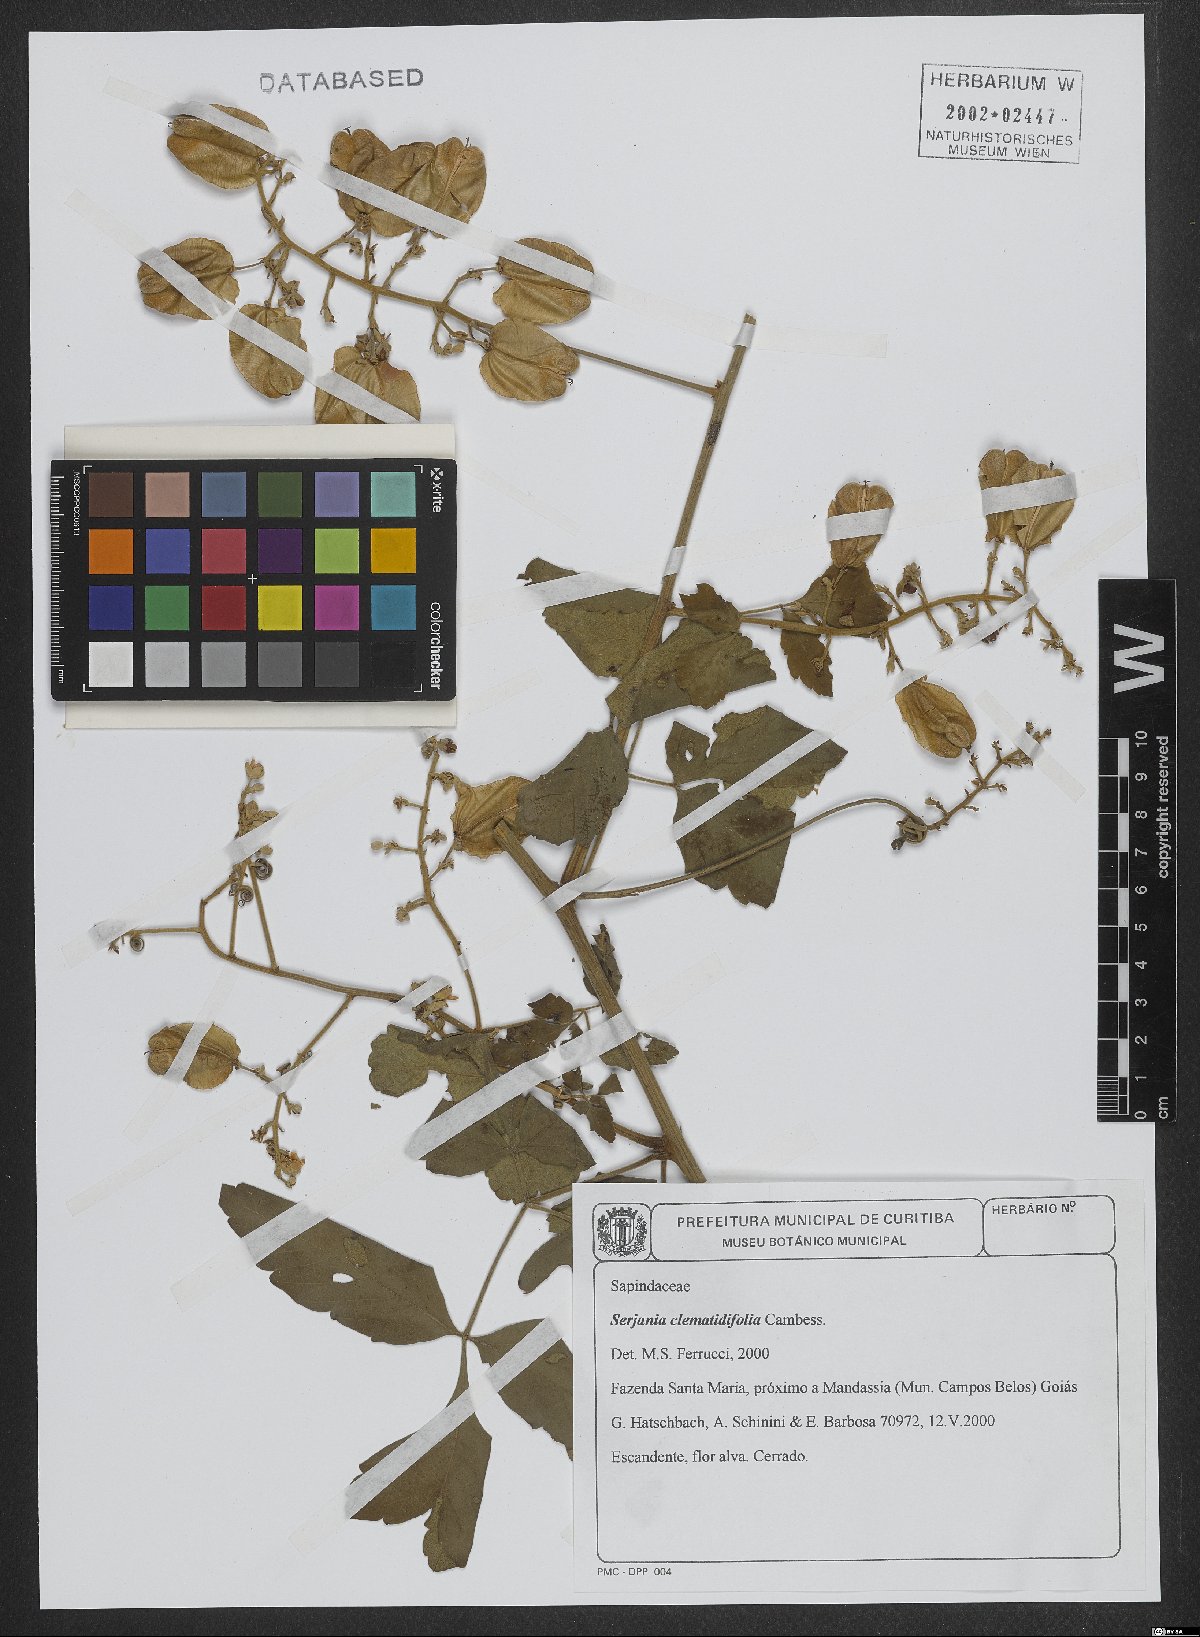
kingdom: Plantae
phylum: Tracheophyta
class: Magnoliopsida
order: Sapindales
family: Sapindaceae
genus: Serjania
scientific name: Serjania clematidifolia
